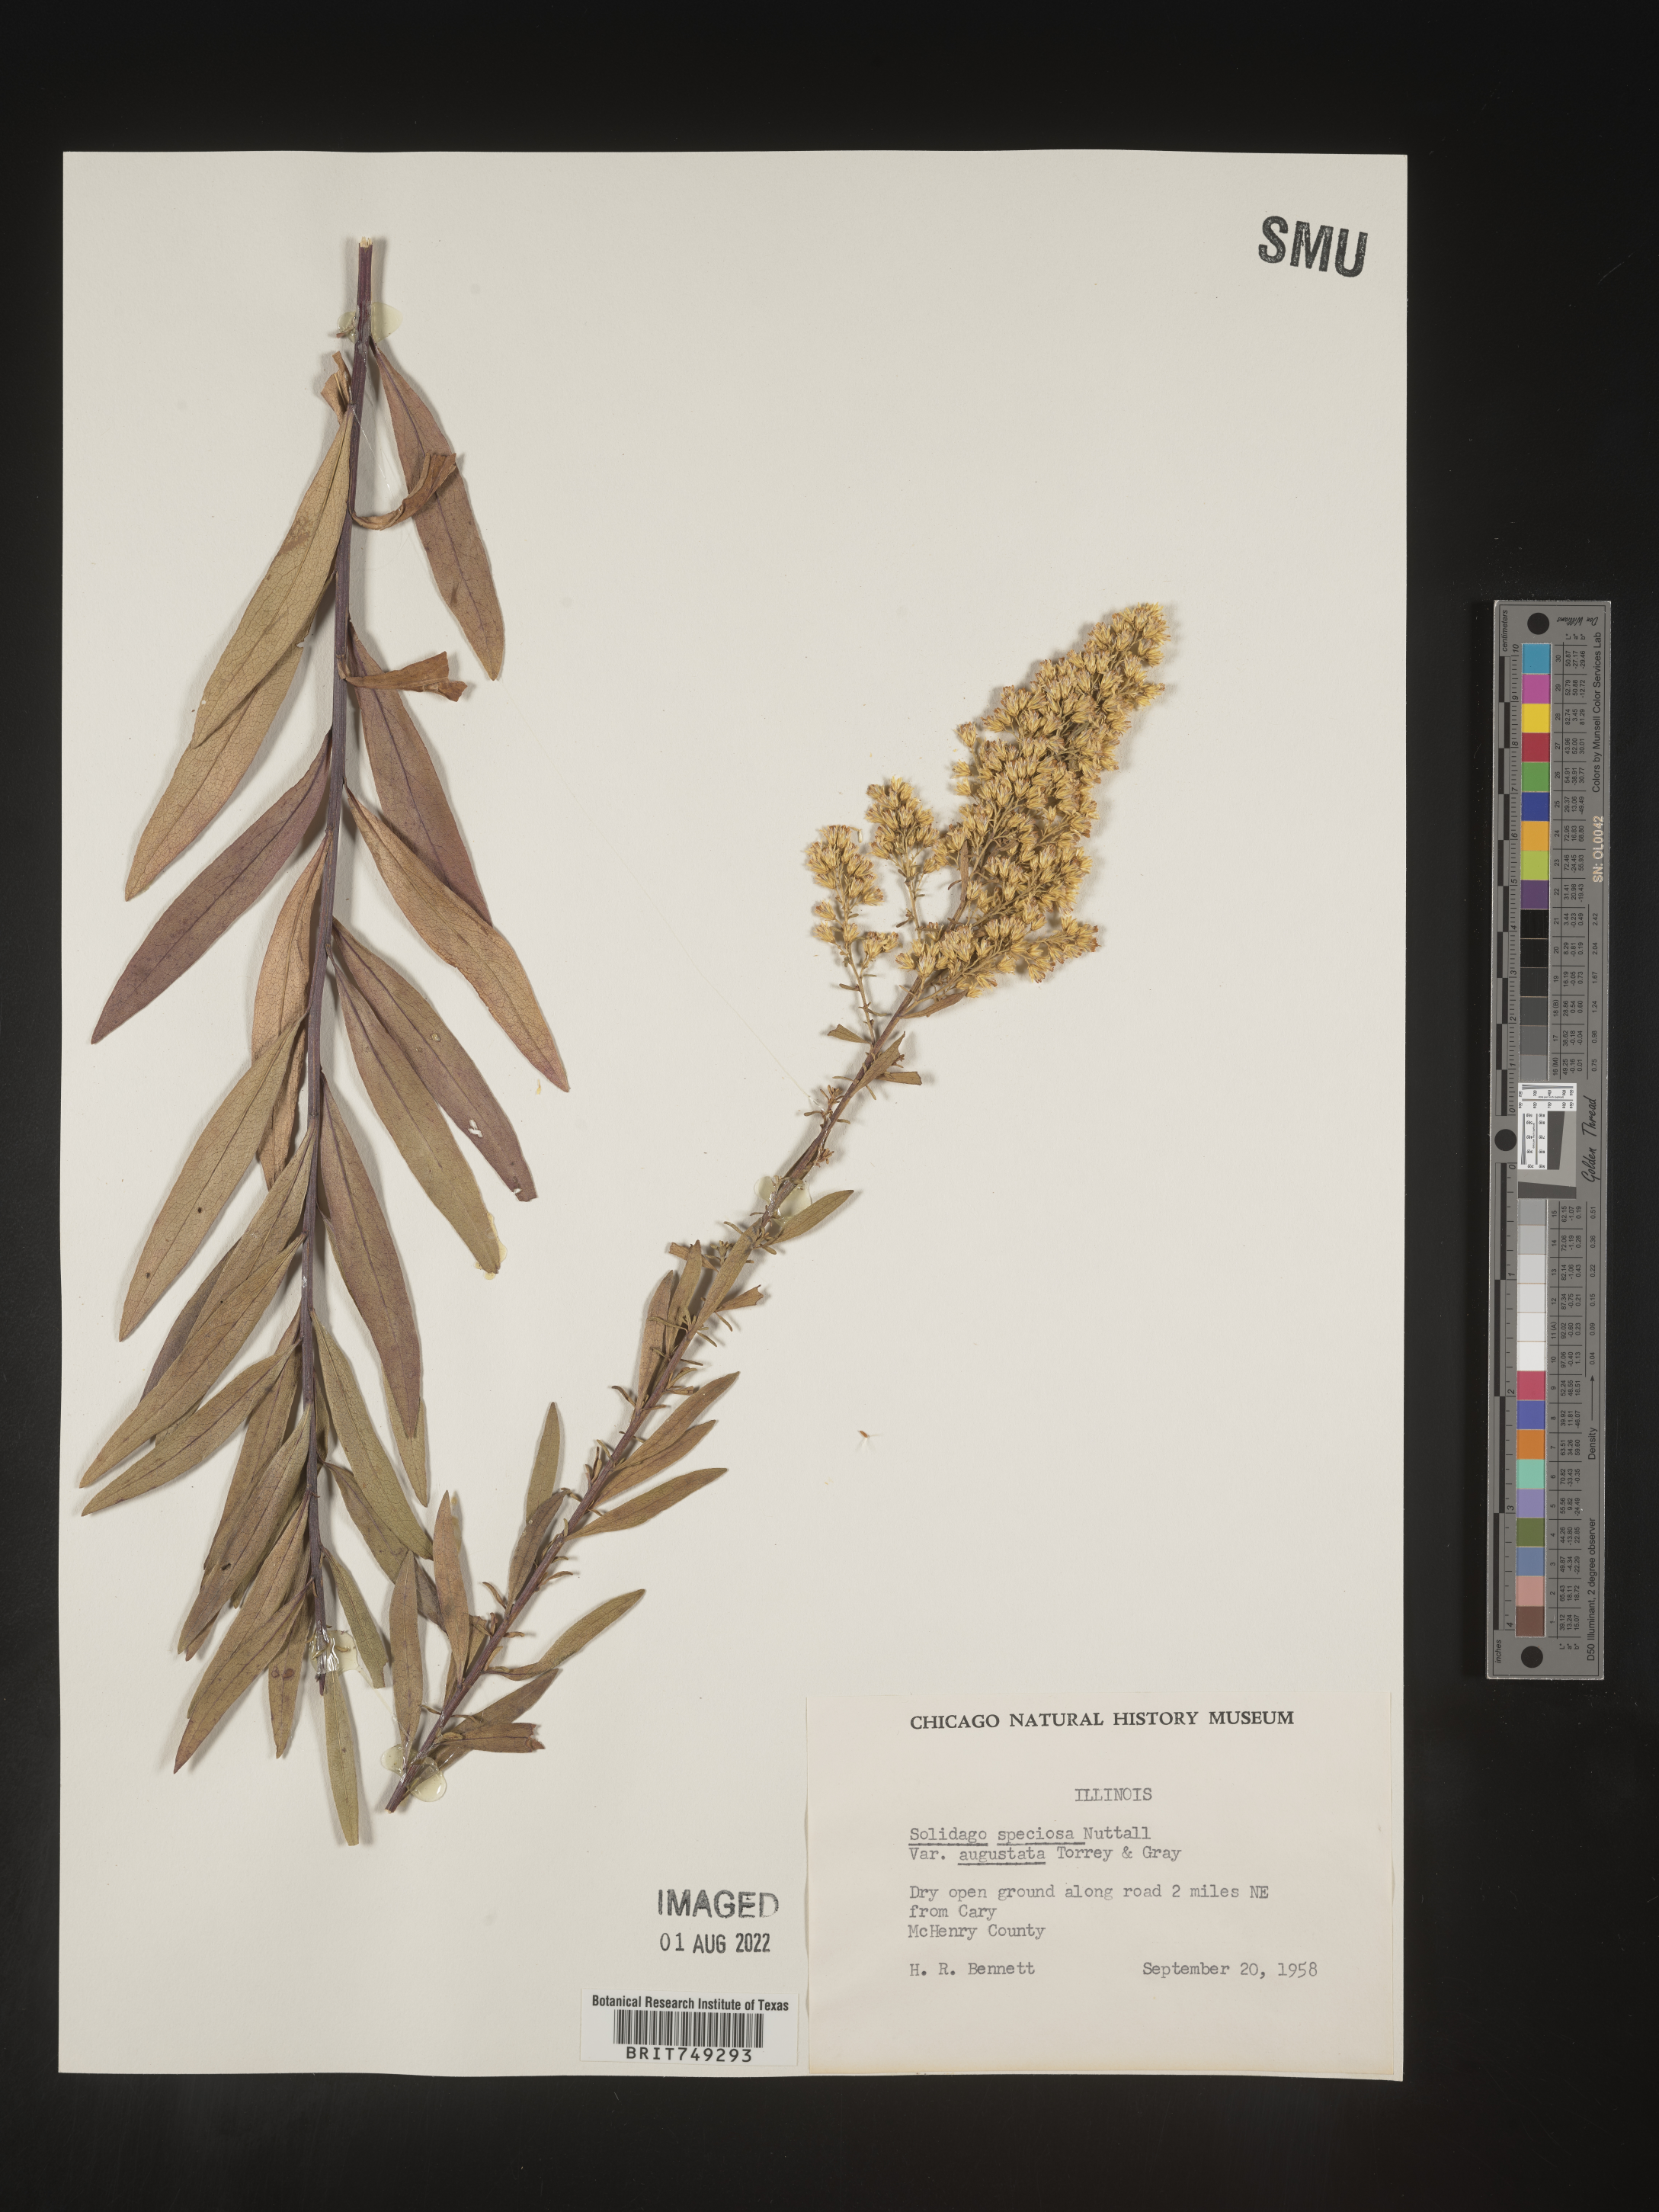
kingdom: Plantae
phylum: Tracheophyta
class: Magnoliopsida
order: Asterales
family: Asteraceae
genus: Solidago
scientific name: Solidago speciosa
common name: Showy goldenrod
